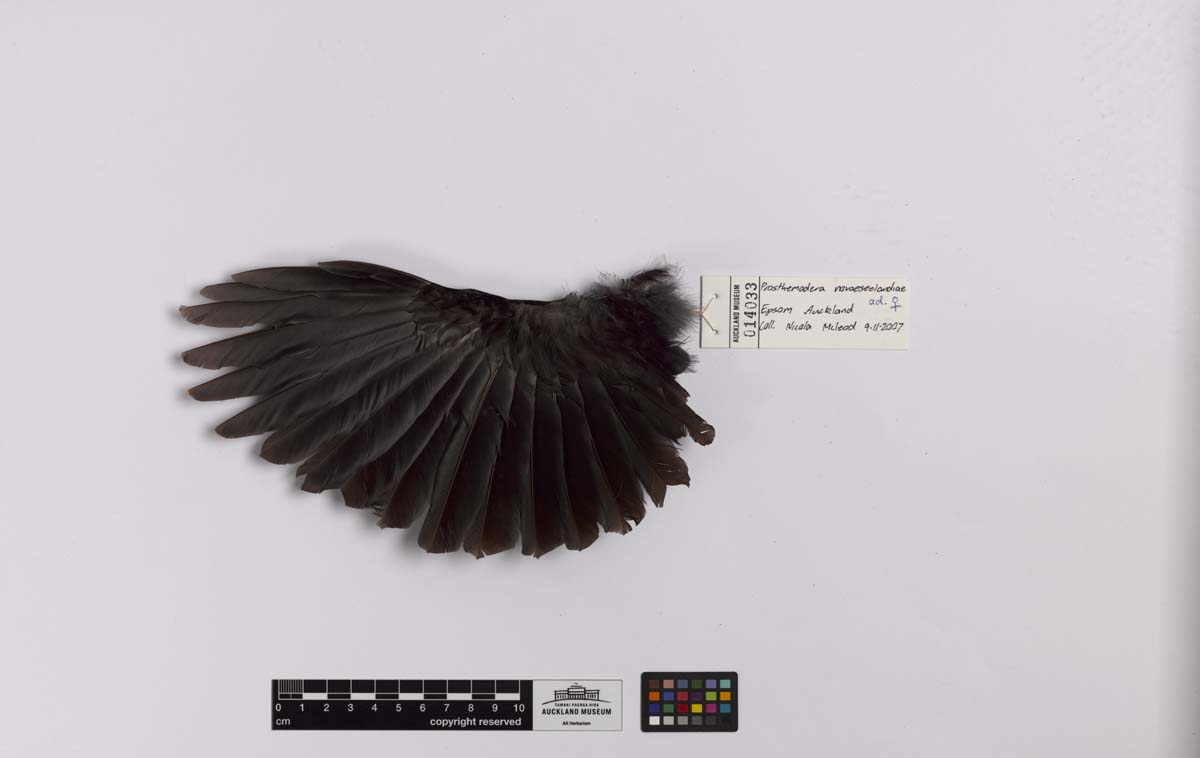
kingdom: Animalia
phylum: Chordata
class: Aves
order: Passeriformes
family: Meliphagidae
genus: Prosthemadera
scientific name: Prosthemadera novaeseelandiae
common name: Tui
